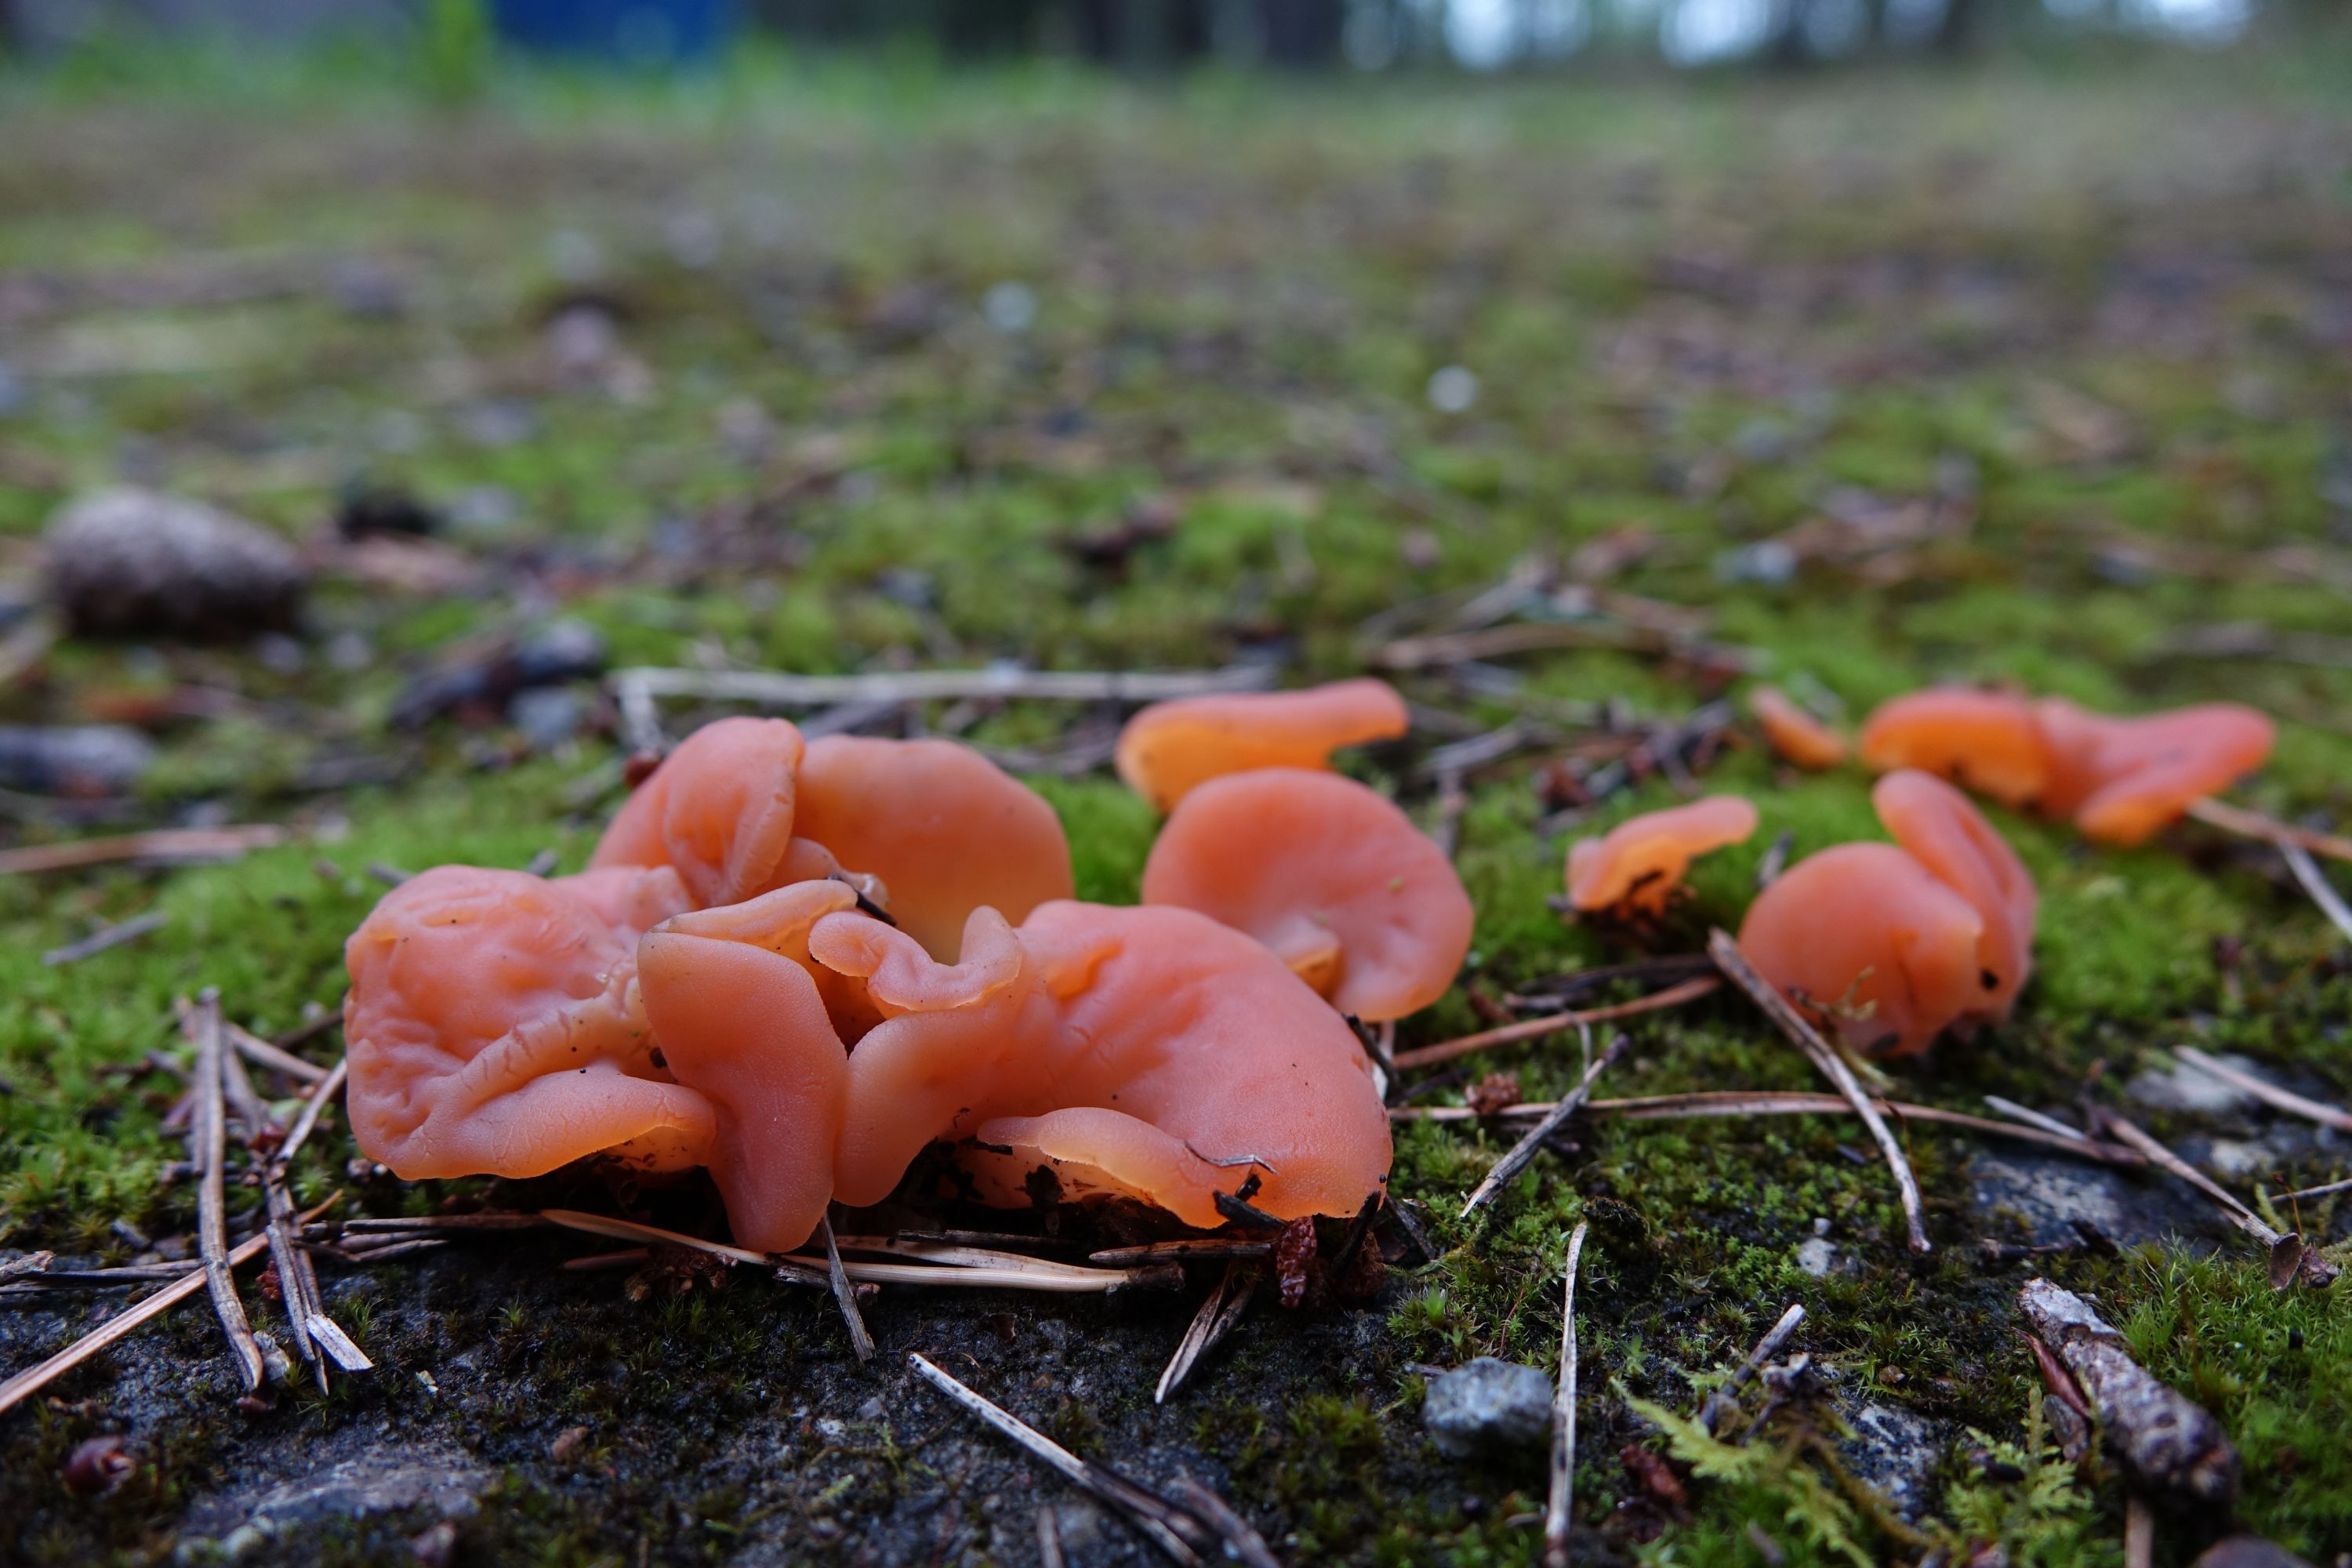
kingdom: Fungi
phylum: Basidiomycota
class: Agaricomycetes
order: Auriculariales
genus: Guepinia
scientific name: Guepinia helvelloides
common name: Salmon salad
